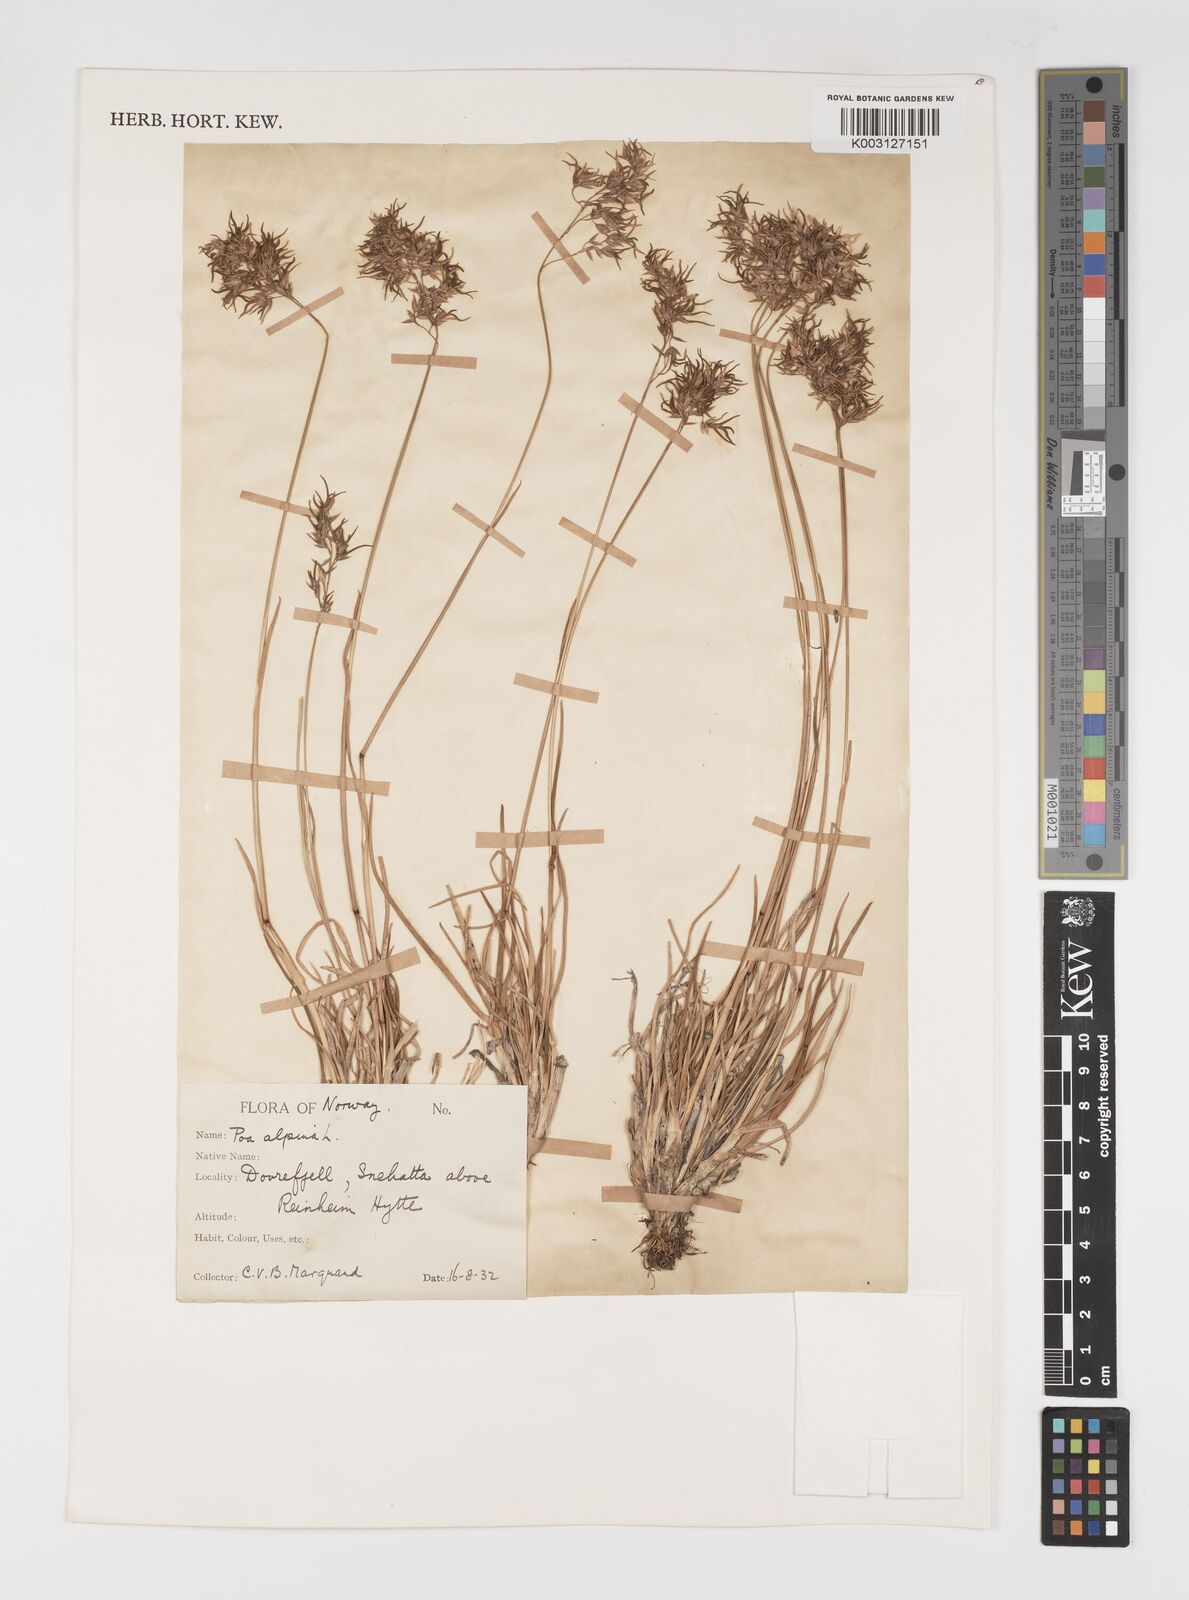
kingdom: Plantae
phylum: Tracheophyta
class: Liliopsida
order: Poales
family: Poaceae
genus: Poa
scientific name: Poa alpina
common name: Alpine bluegrass
